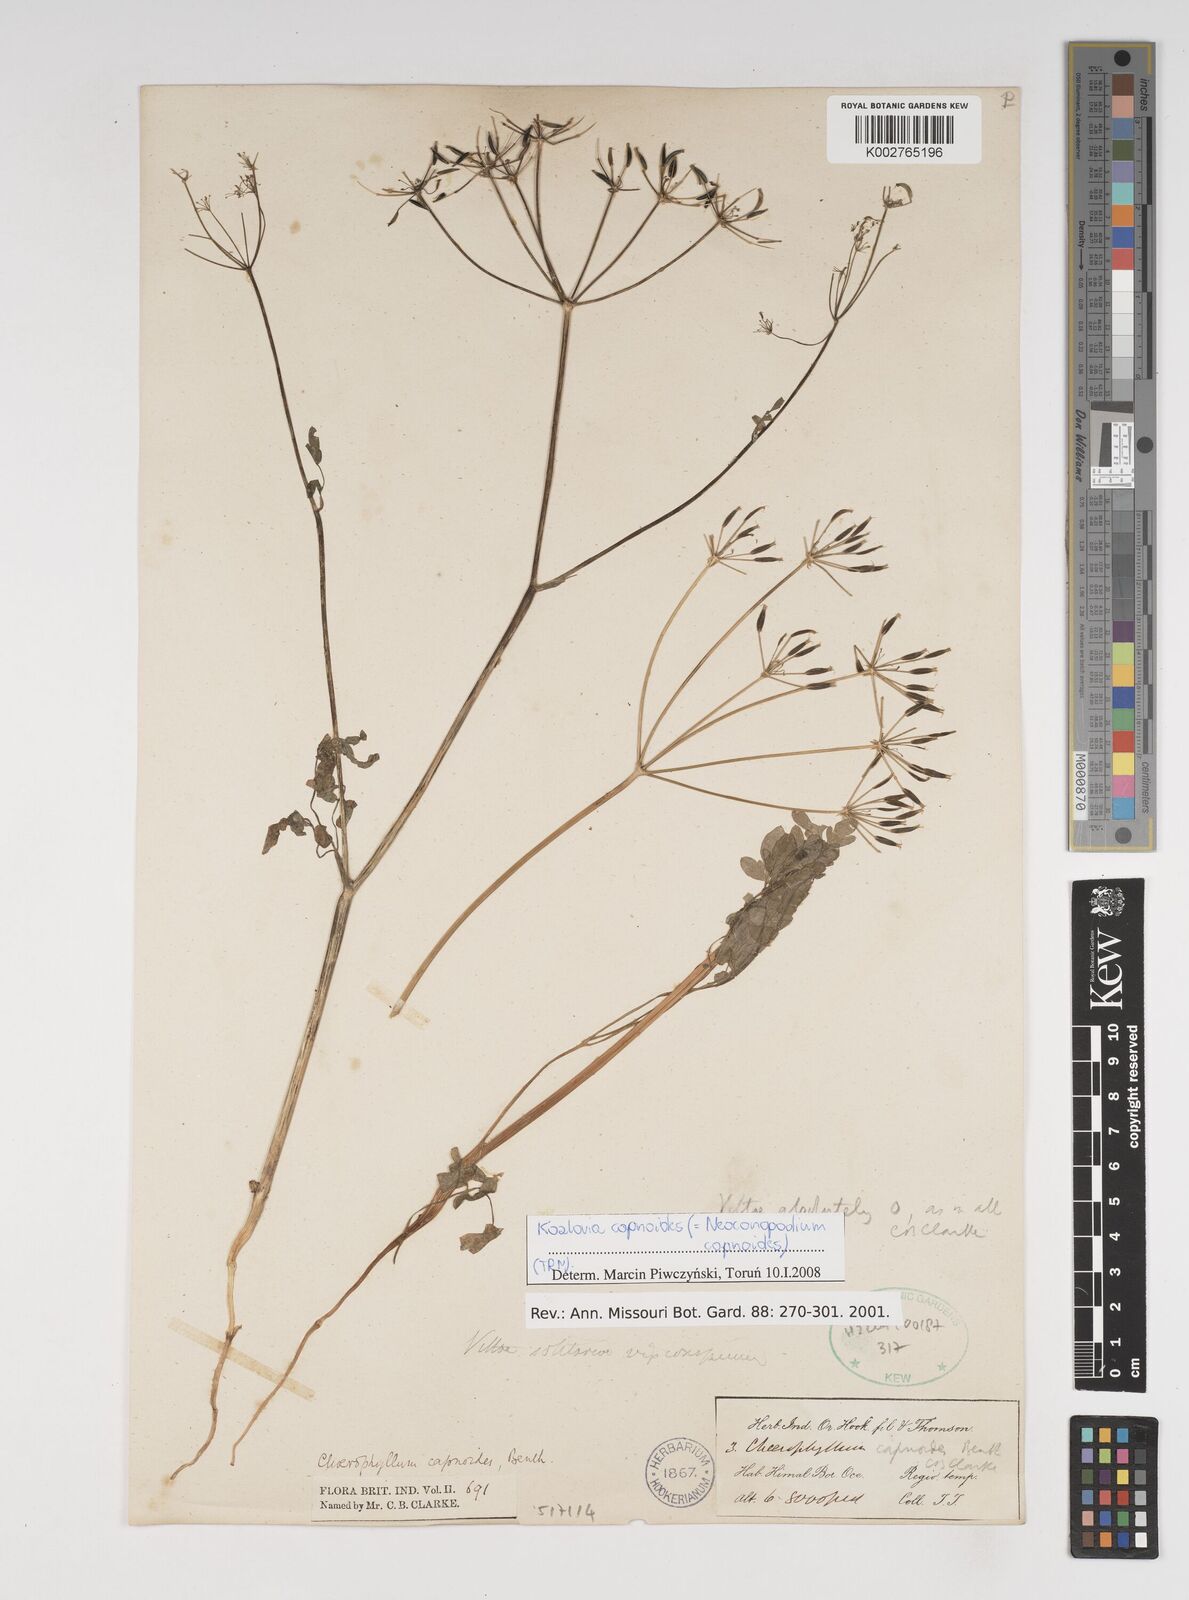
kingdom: Plantae
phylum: Tracheophyta
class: Magnoliopsida
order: Apiales
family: Apiaceae
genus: Kozlovia
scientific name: Kozlovia capnoides
